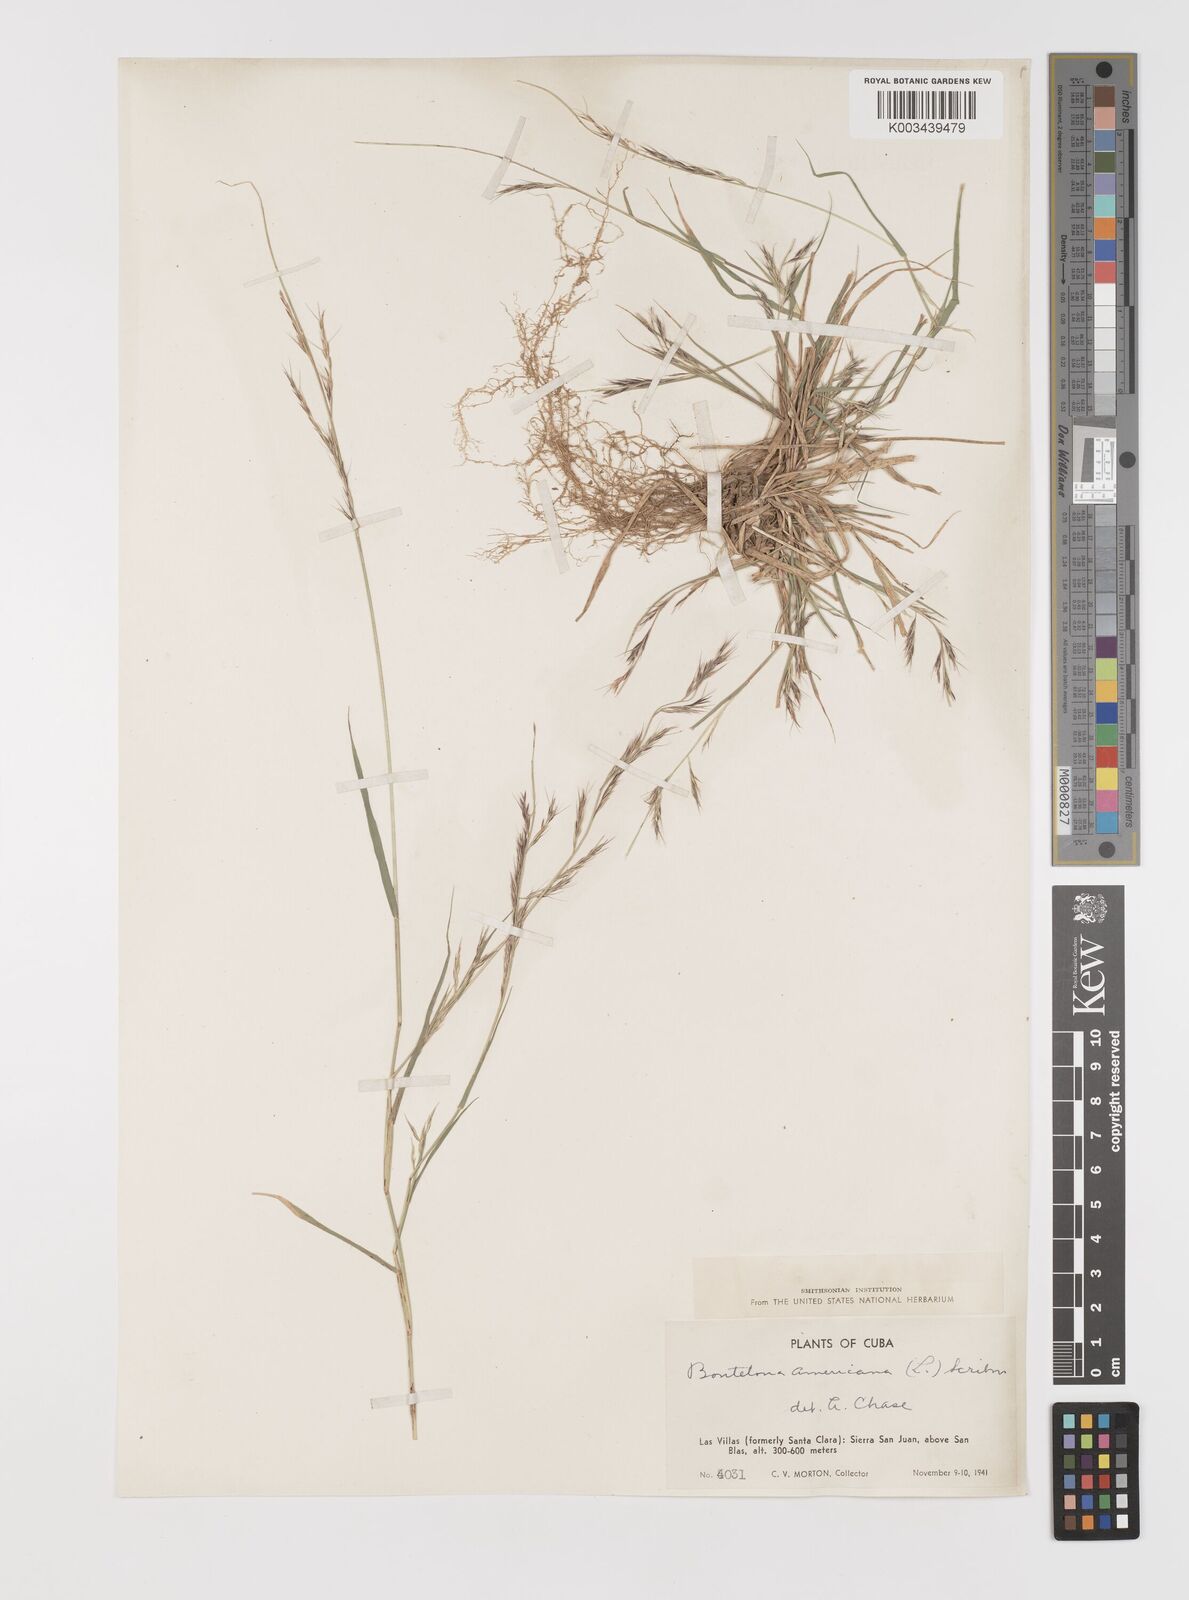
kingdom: Plantae
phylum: Tracheophyta
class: Liliopsida
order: Poales
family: Poaceae
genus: Bouteloua
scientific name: Bouteloua americana
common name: Mule grass
